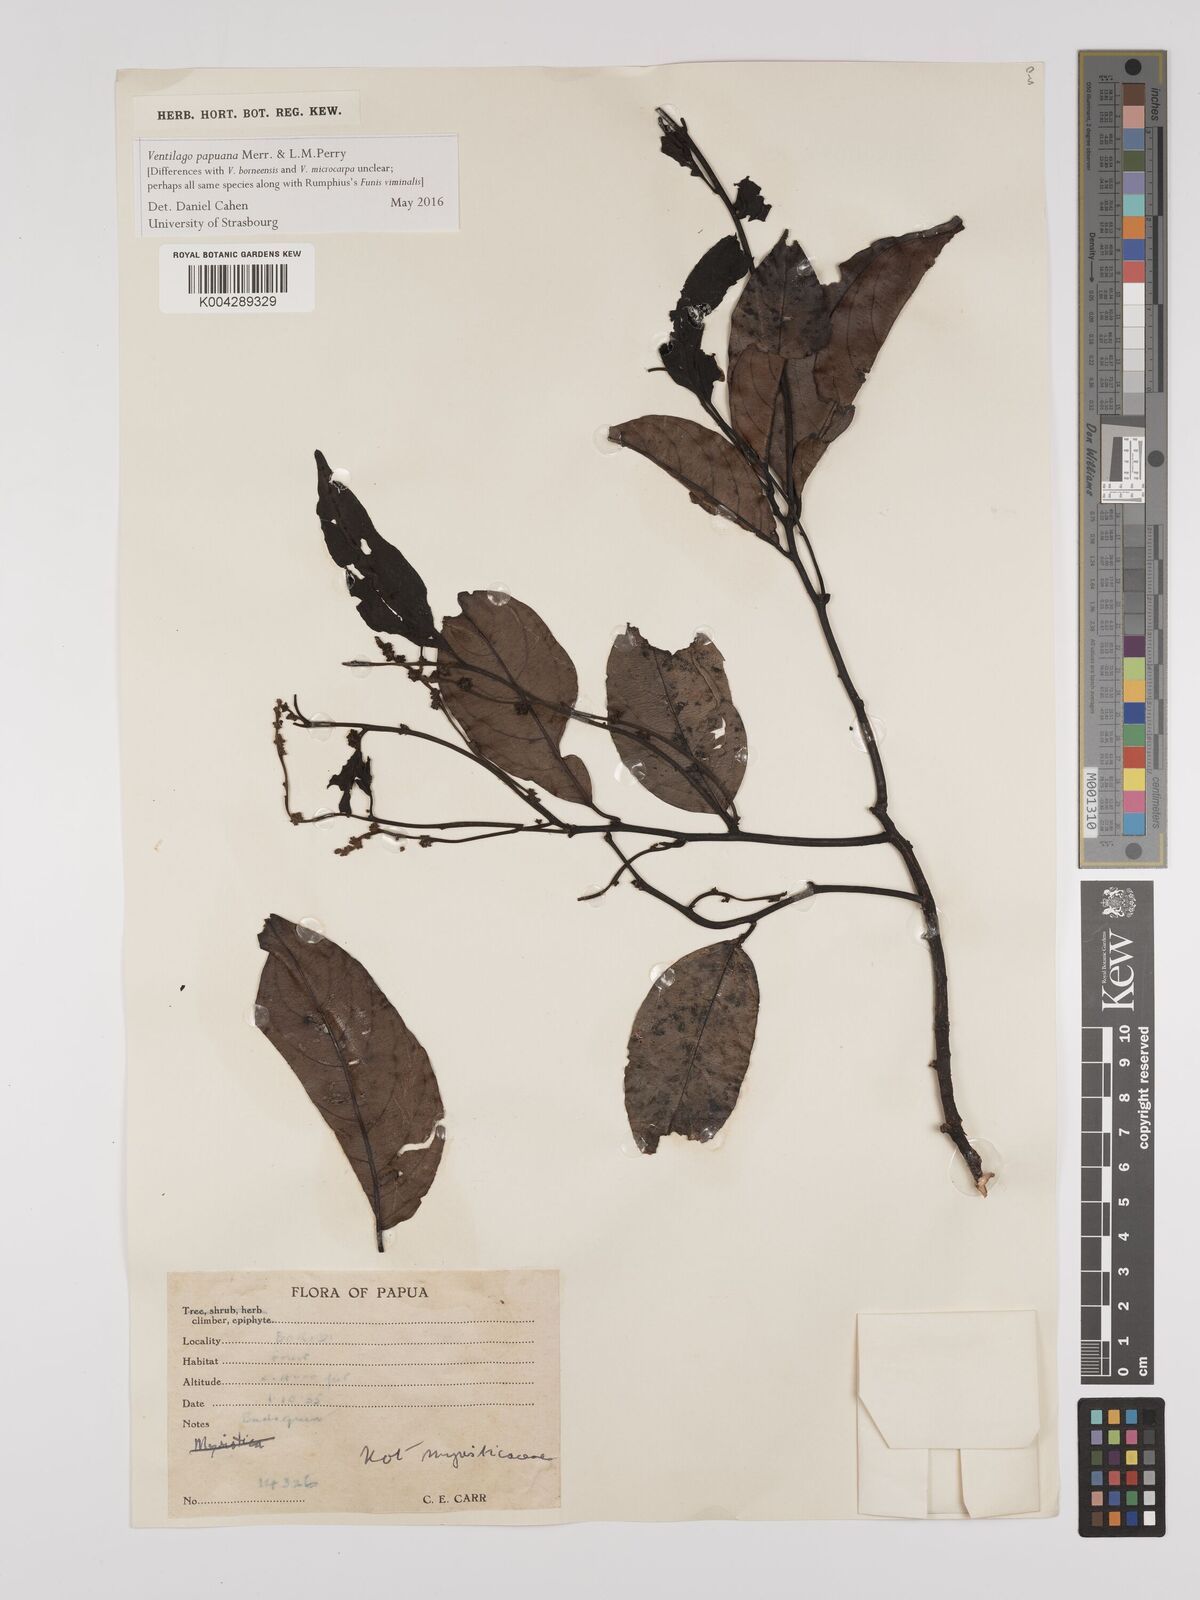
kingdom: Plantae
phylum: Tracheophyta
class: Magnoliopsida
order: Rosales
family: Rhamnaceae
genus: Ventilago
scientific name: Ventilago papuana
